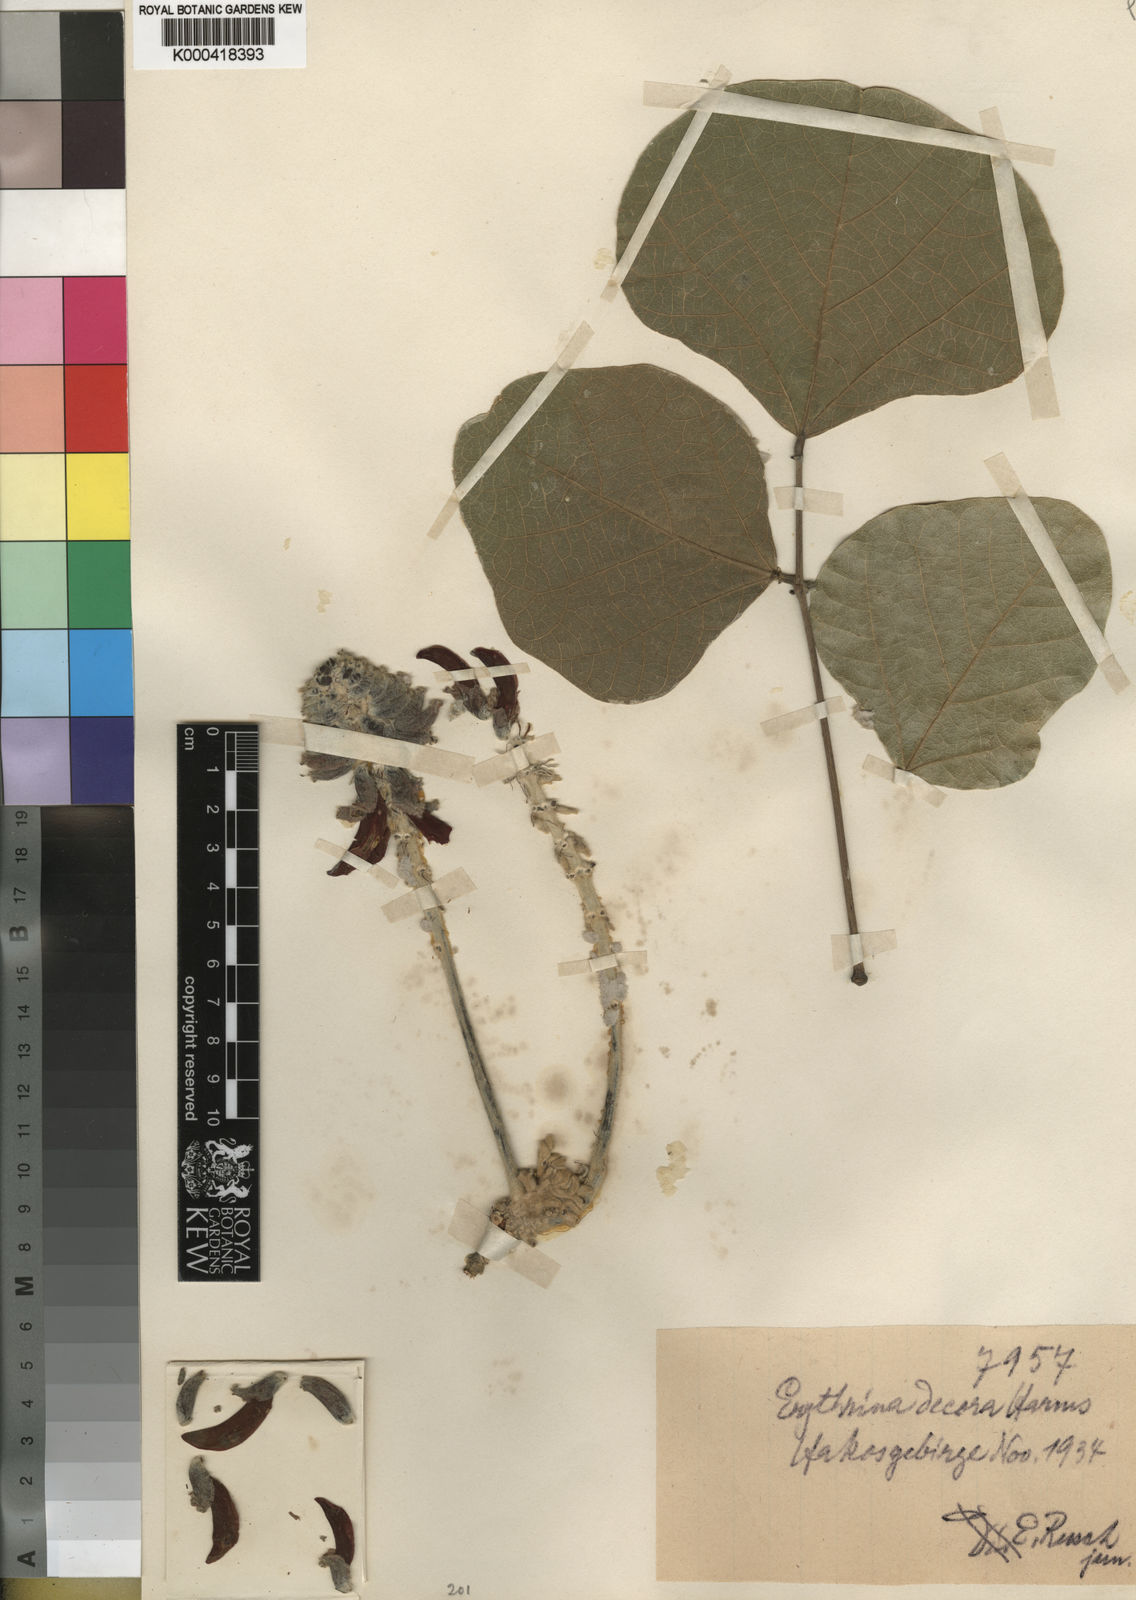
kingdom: Plantae
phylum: Tracheophyta
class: Magnoliopsida
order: Fabales
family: Fabaceae
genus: Erythrina
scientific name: Erythrina decora
